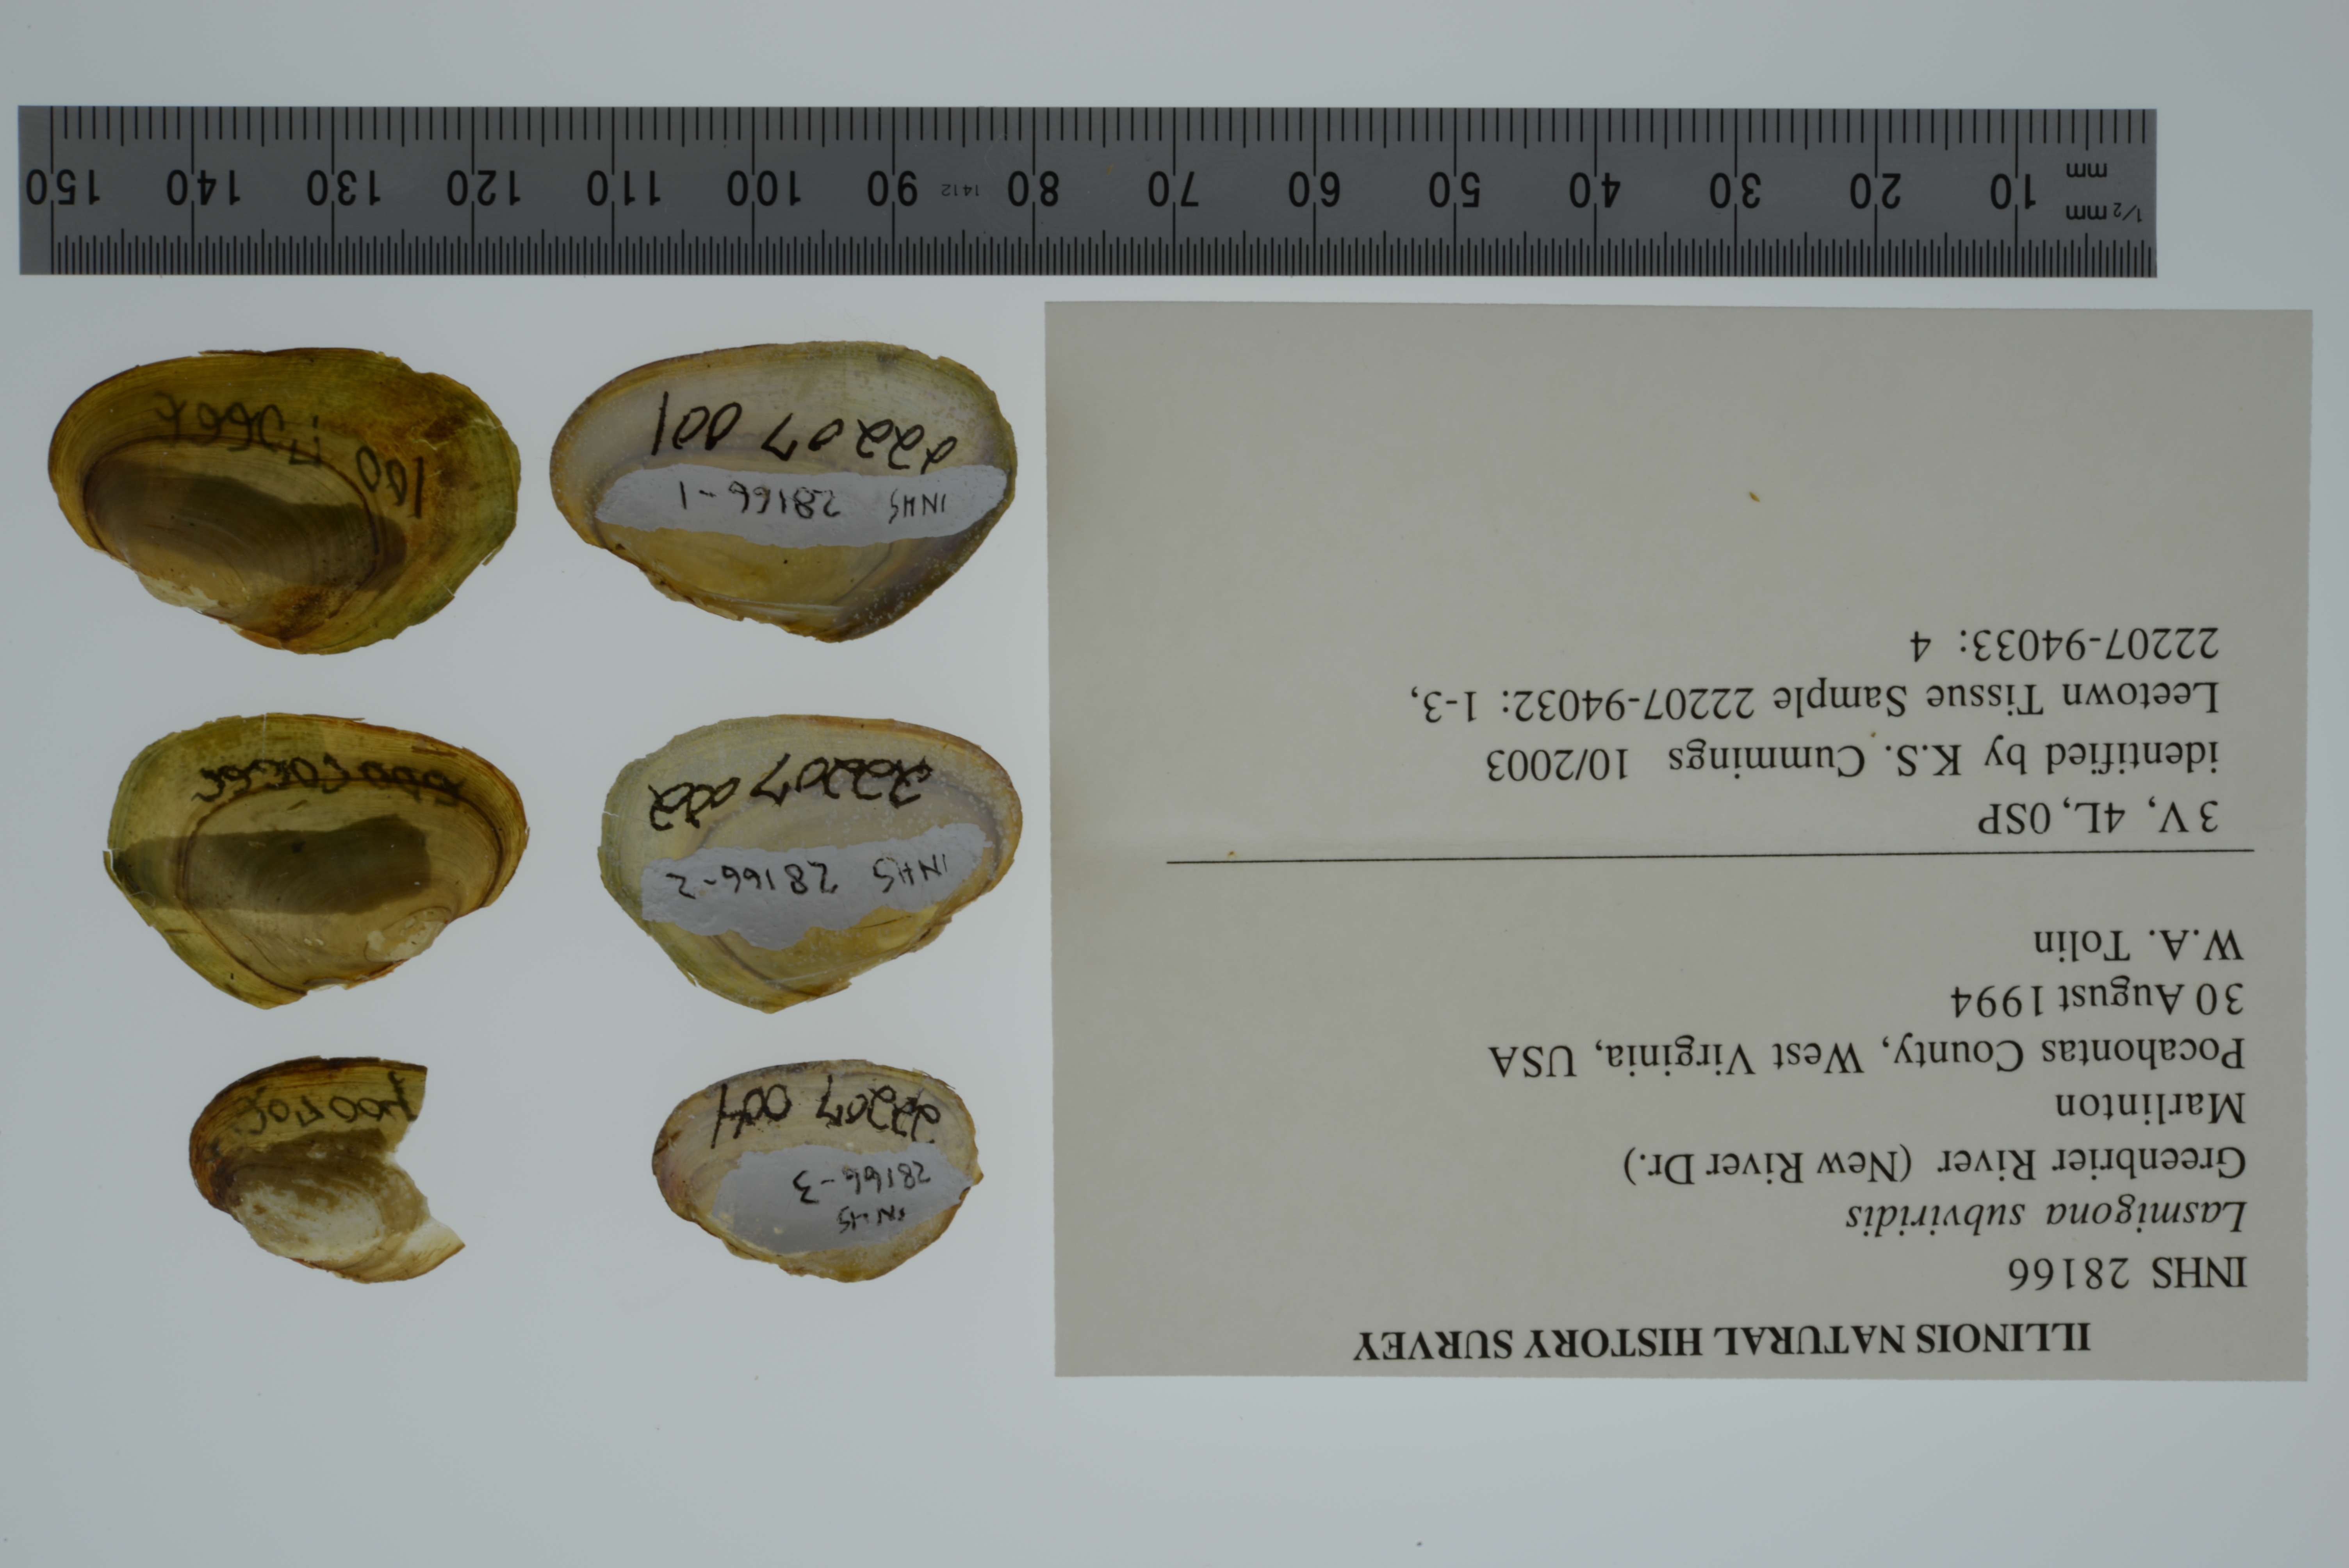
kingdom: Animalia
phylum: Mollusca
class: Bivalvia
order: Unionida
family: Unionidae
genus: Lasmigona
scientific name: Lasmigona subviridis
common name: Green floater
